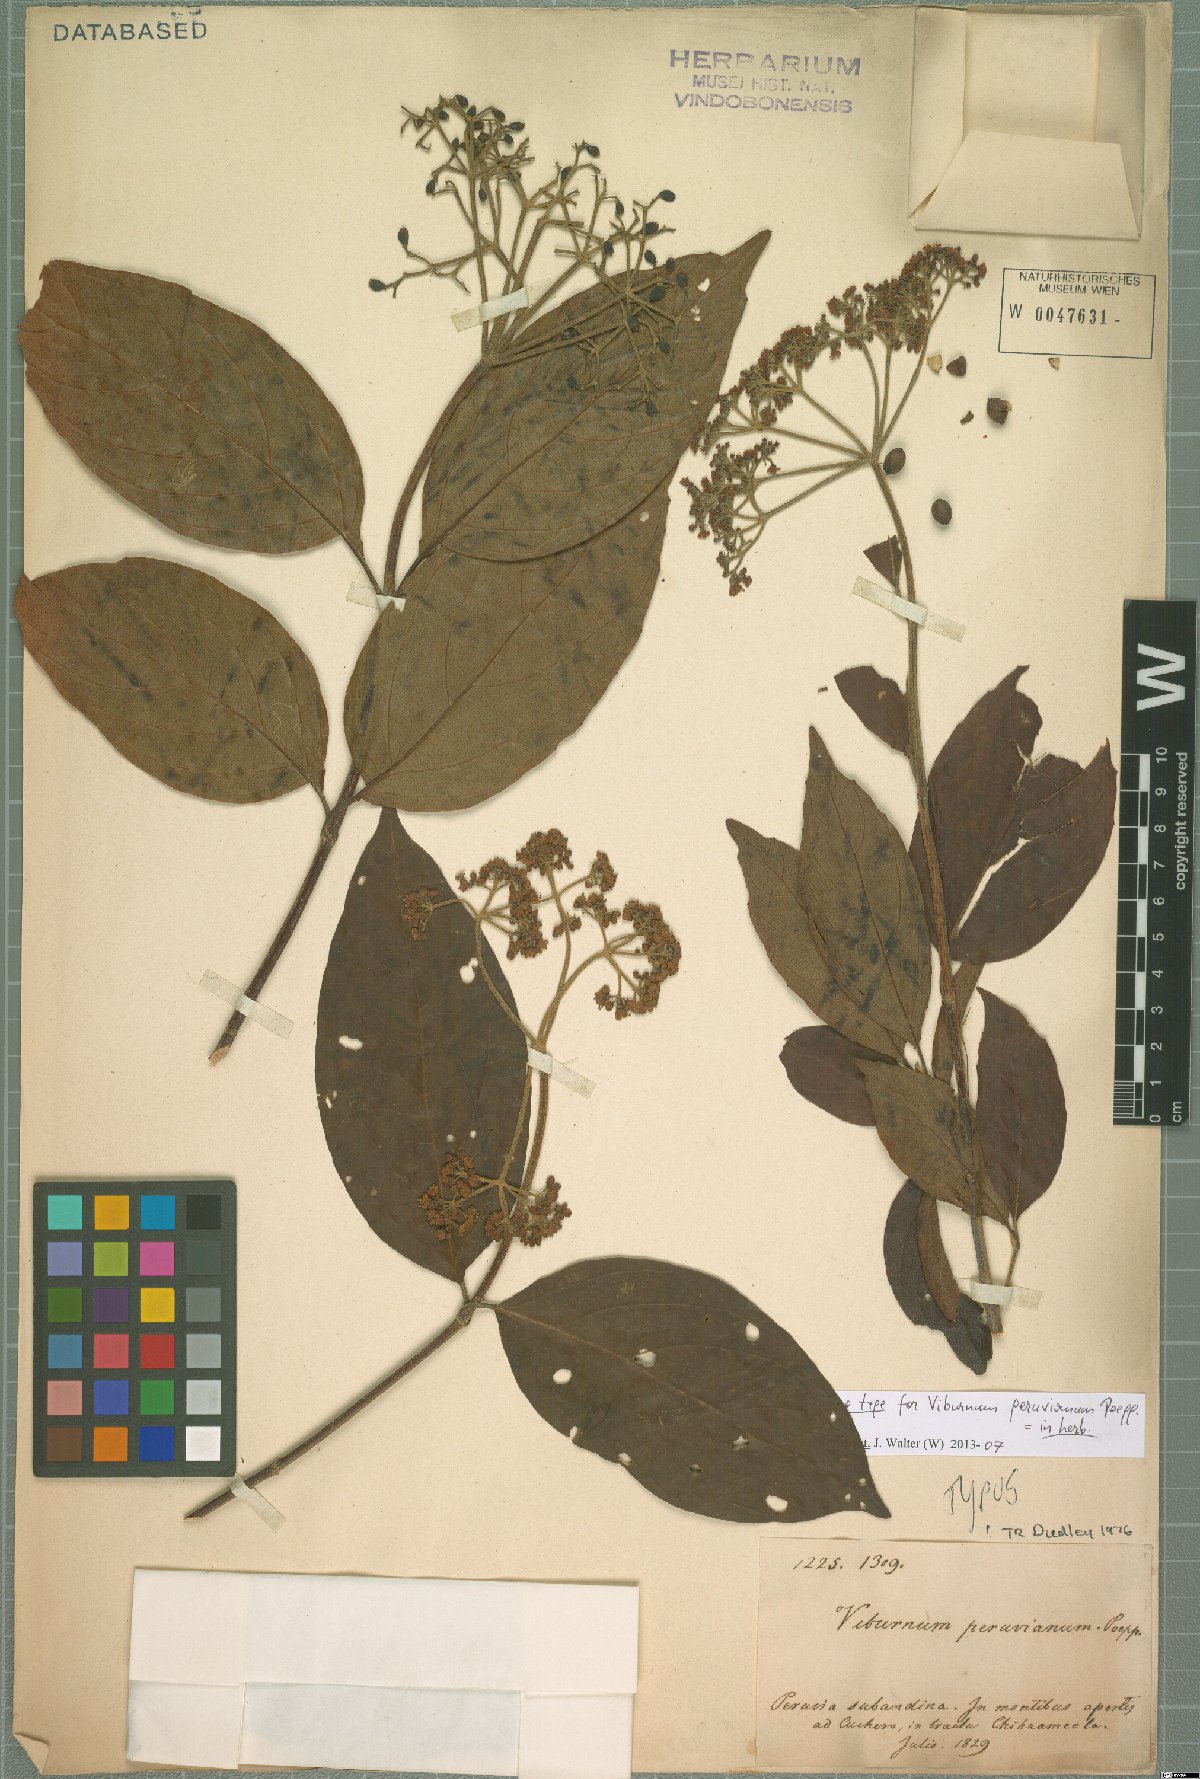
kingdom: Plantae
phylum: Tracheophyta
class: Magnoliopsida
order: Dipsacales
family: Viburnaceae
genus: Viburnum
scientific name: Viburnum peruvianum
